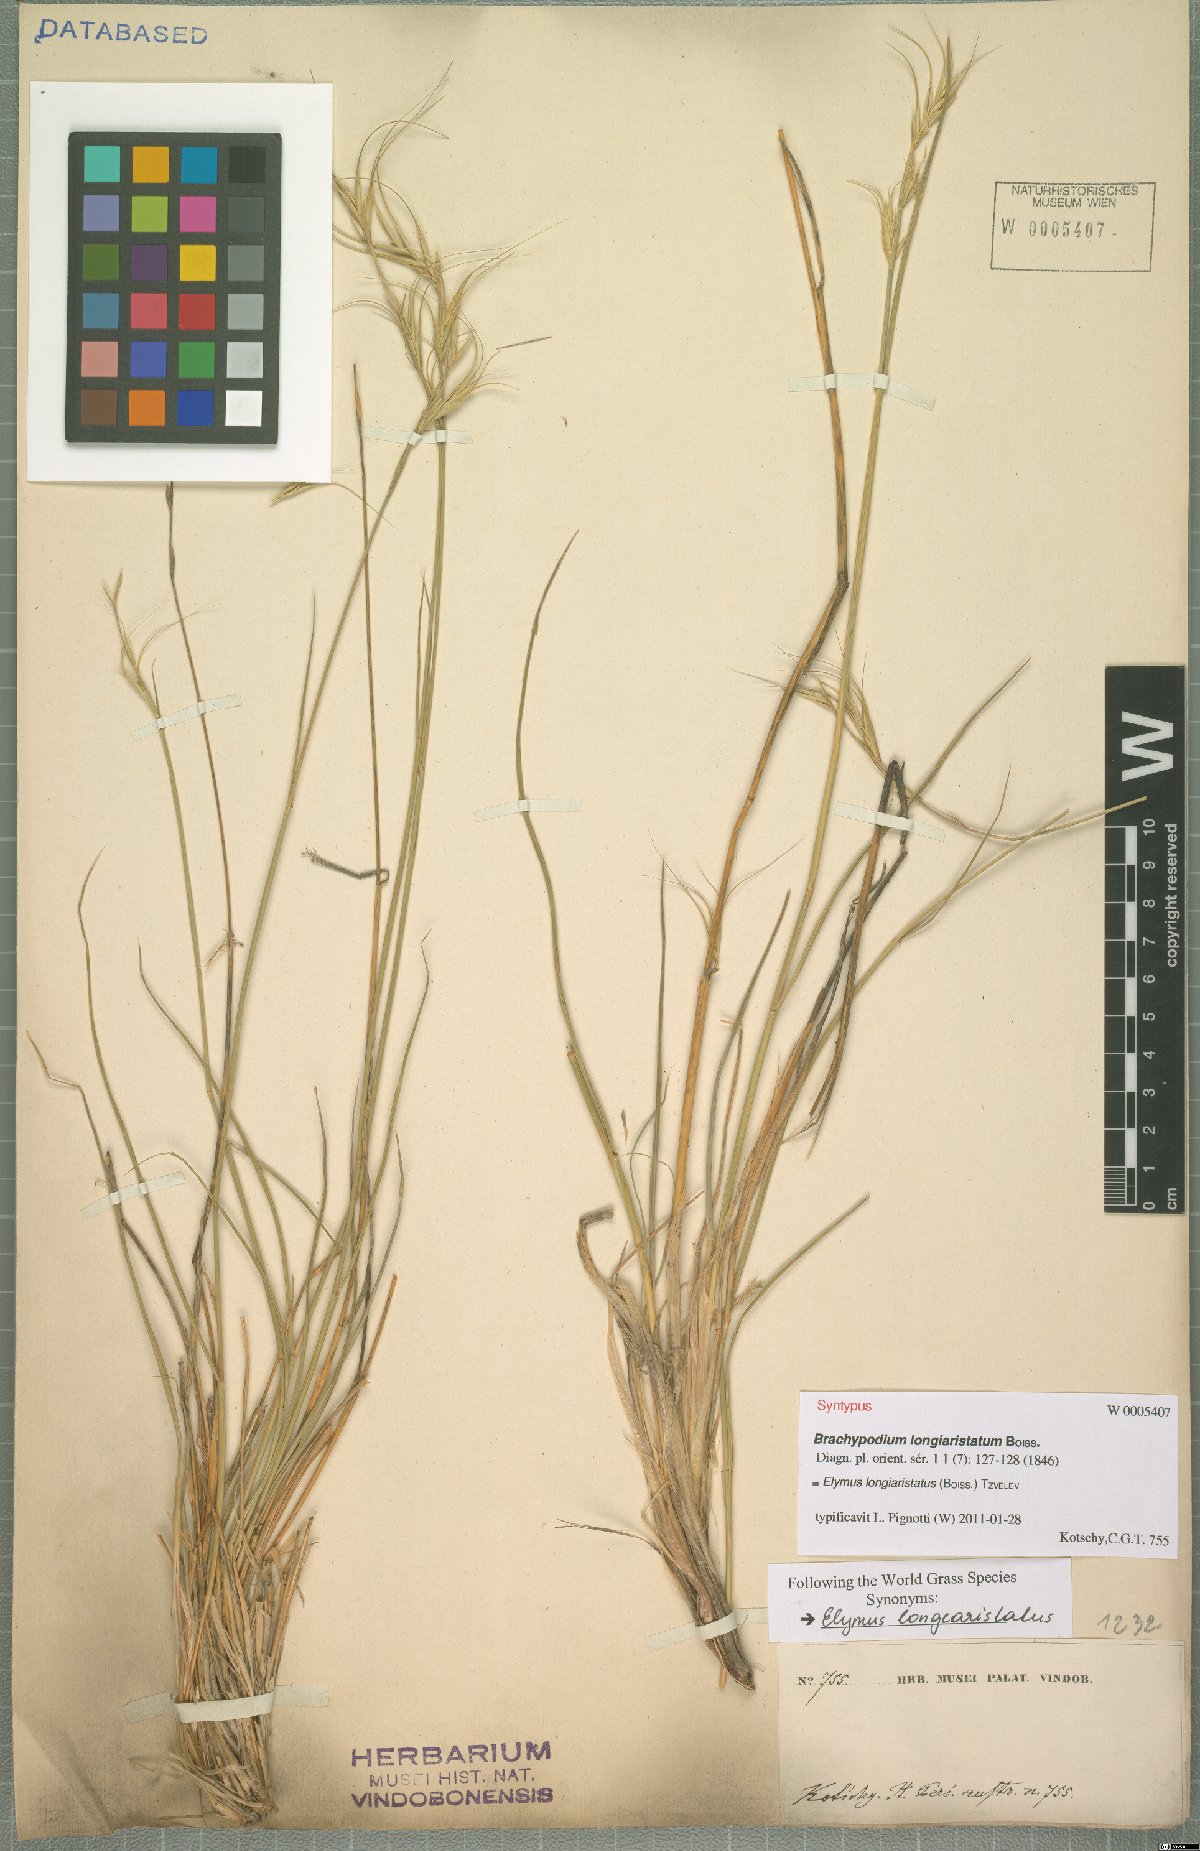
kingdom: Plantae
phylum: Tracheophyta
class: Liliopsida
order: Poales
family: Poaceae
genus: Elymus
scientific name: Elymus longiaristatus
